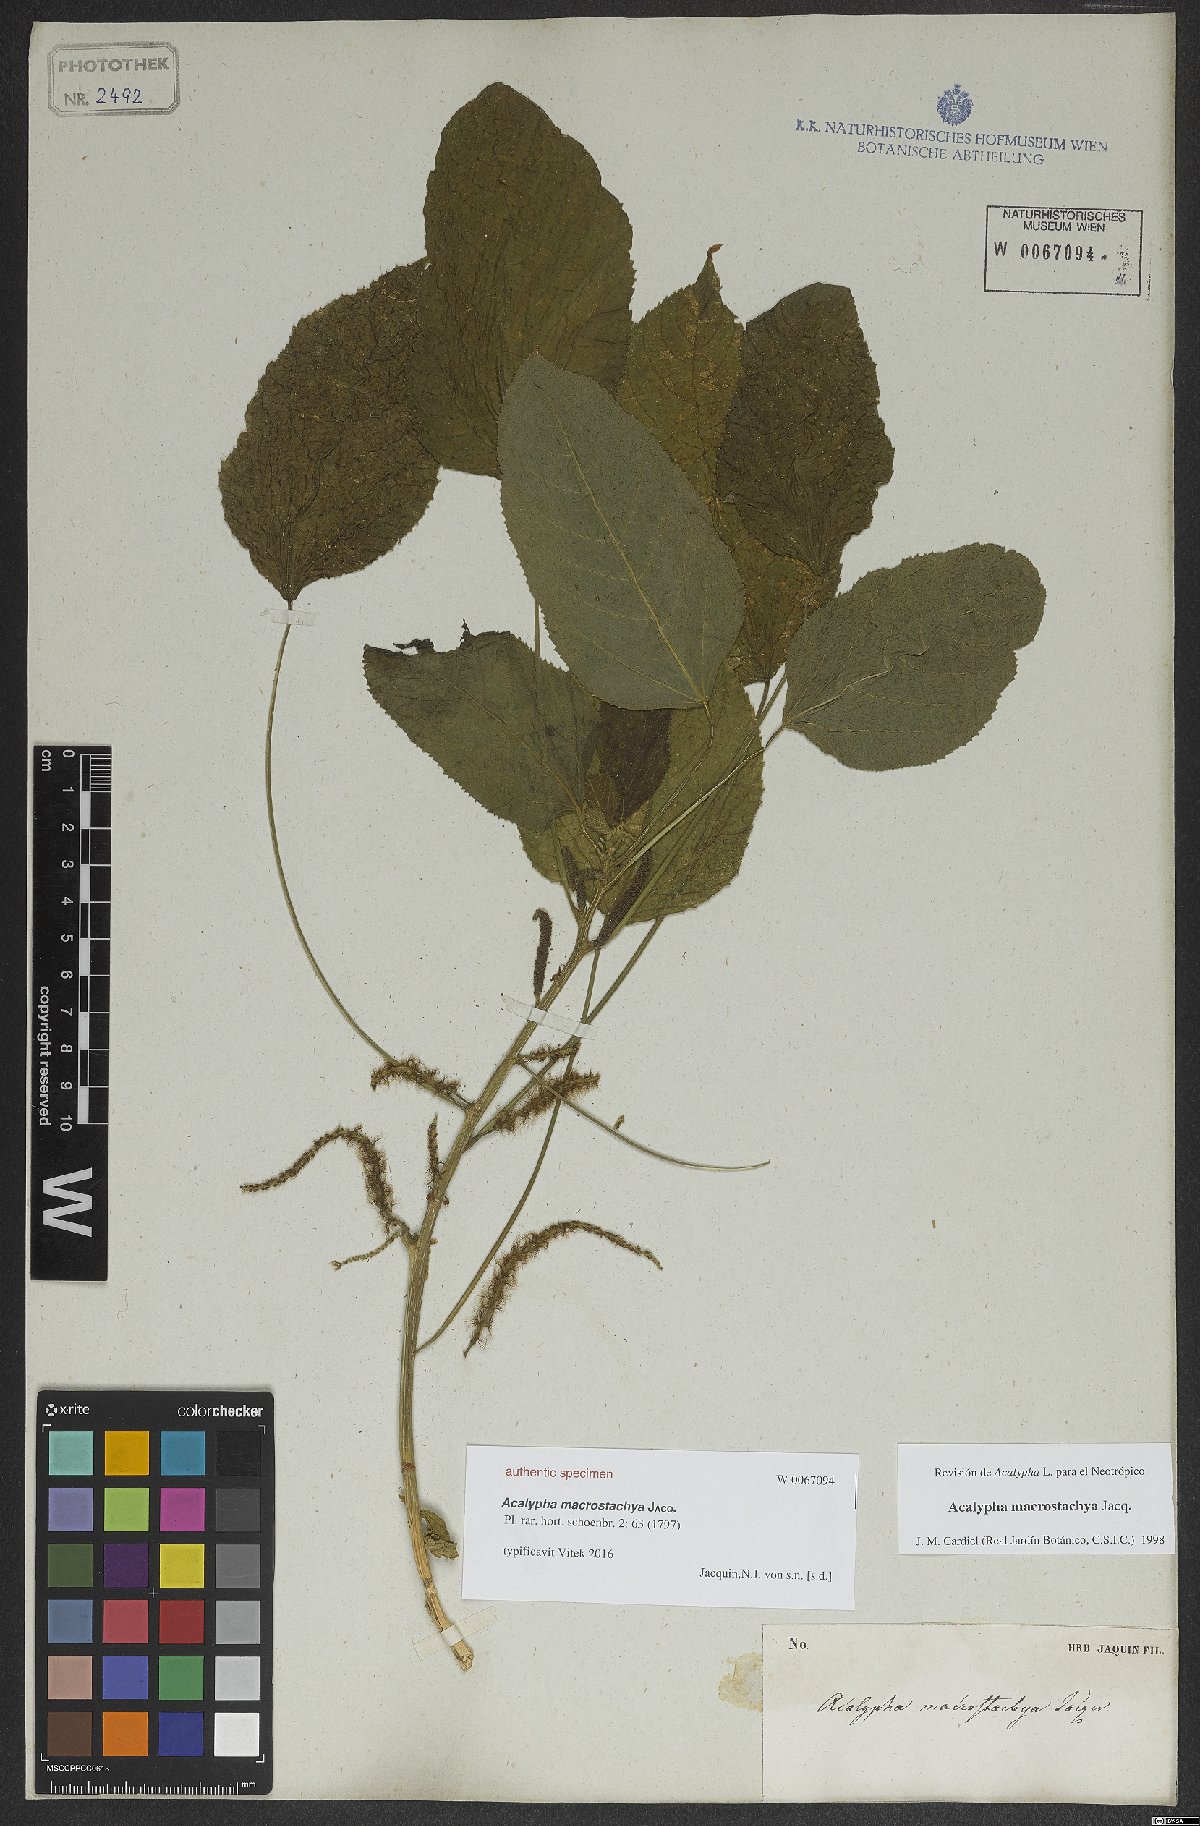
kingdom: Plantae
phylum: Tracheophyta
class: Magnoliopsida
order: Malpighiales
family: Euphorbiaceae
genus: Acalypha
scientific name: Acalypha macrostachya
